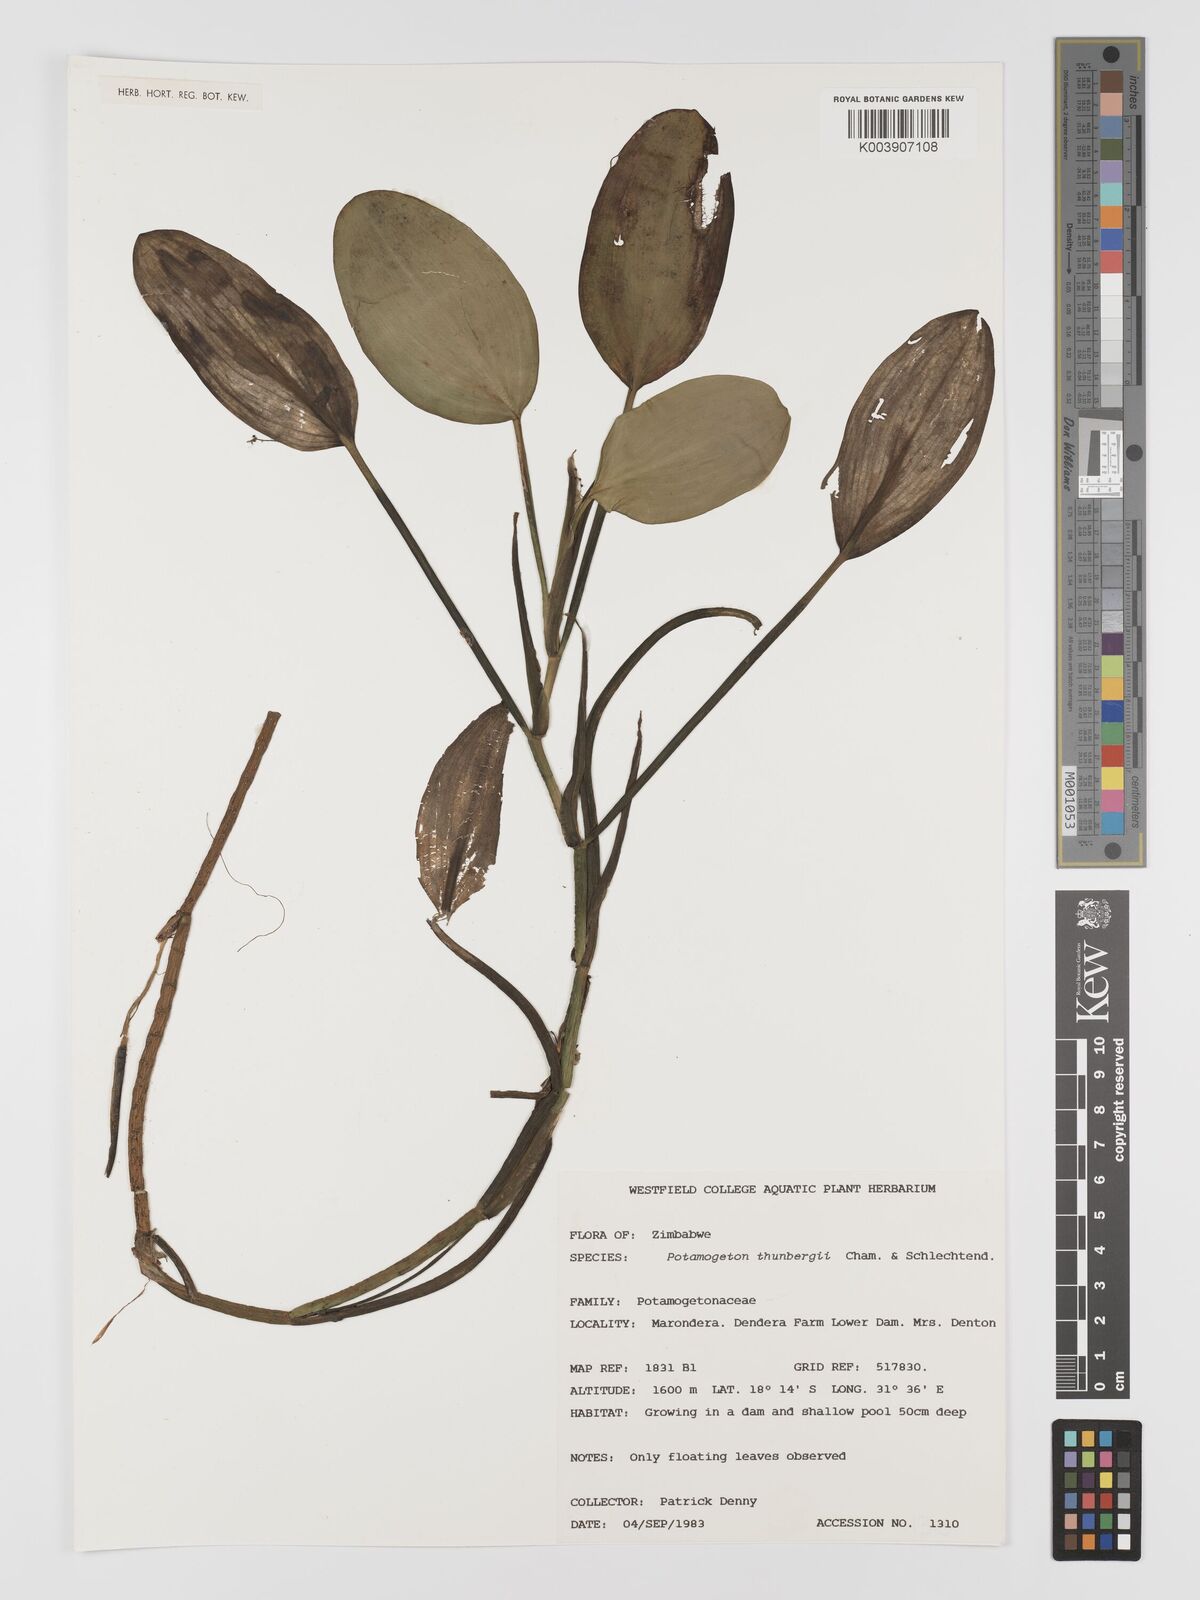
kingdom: Plantae
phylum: Tracheophyta
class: Liliopsida
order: Alismatales
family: Potamogetonaceae
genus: Potamogeton
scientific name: Potamogeton nodosus
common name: Loddon pondweed
